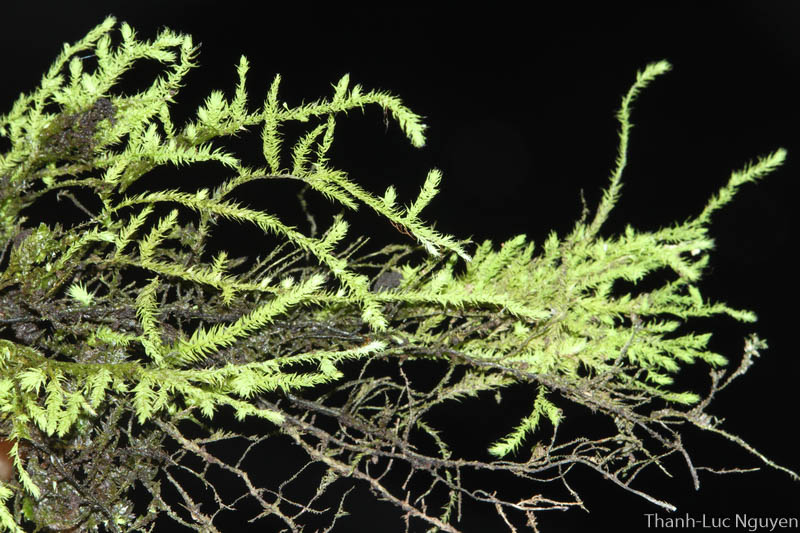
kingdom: Plantae
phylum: Bryophyta
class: Bryopsida
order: Hypnales
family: Meteoriaceae
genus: Trachypus
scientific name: Trachypus
